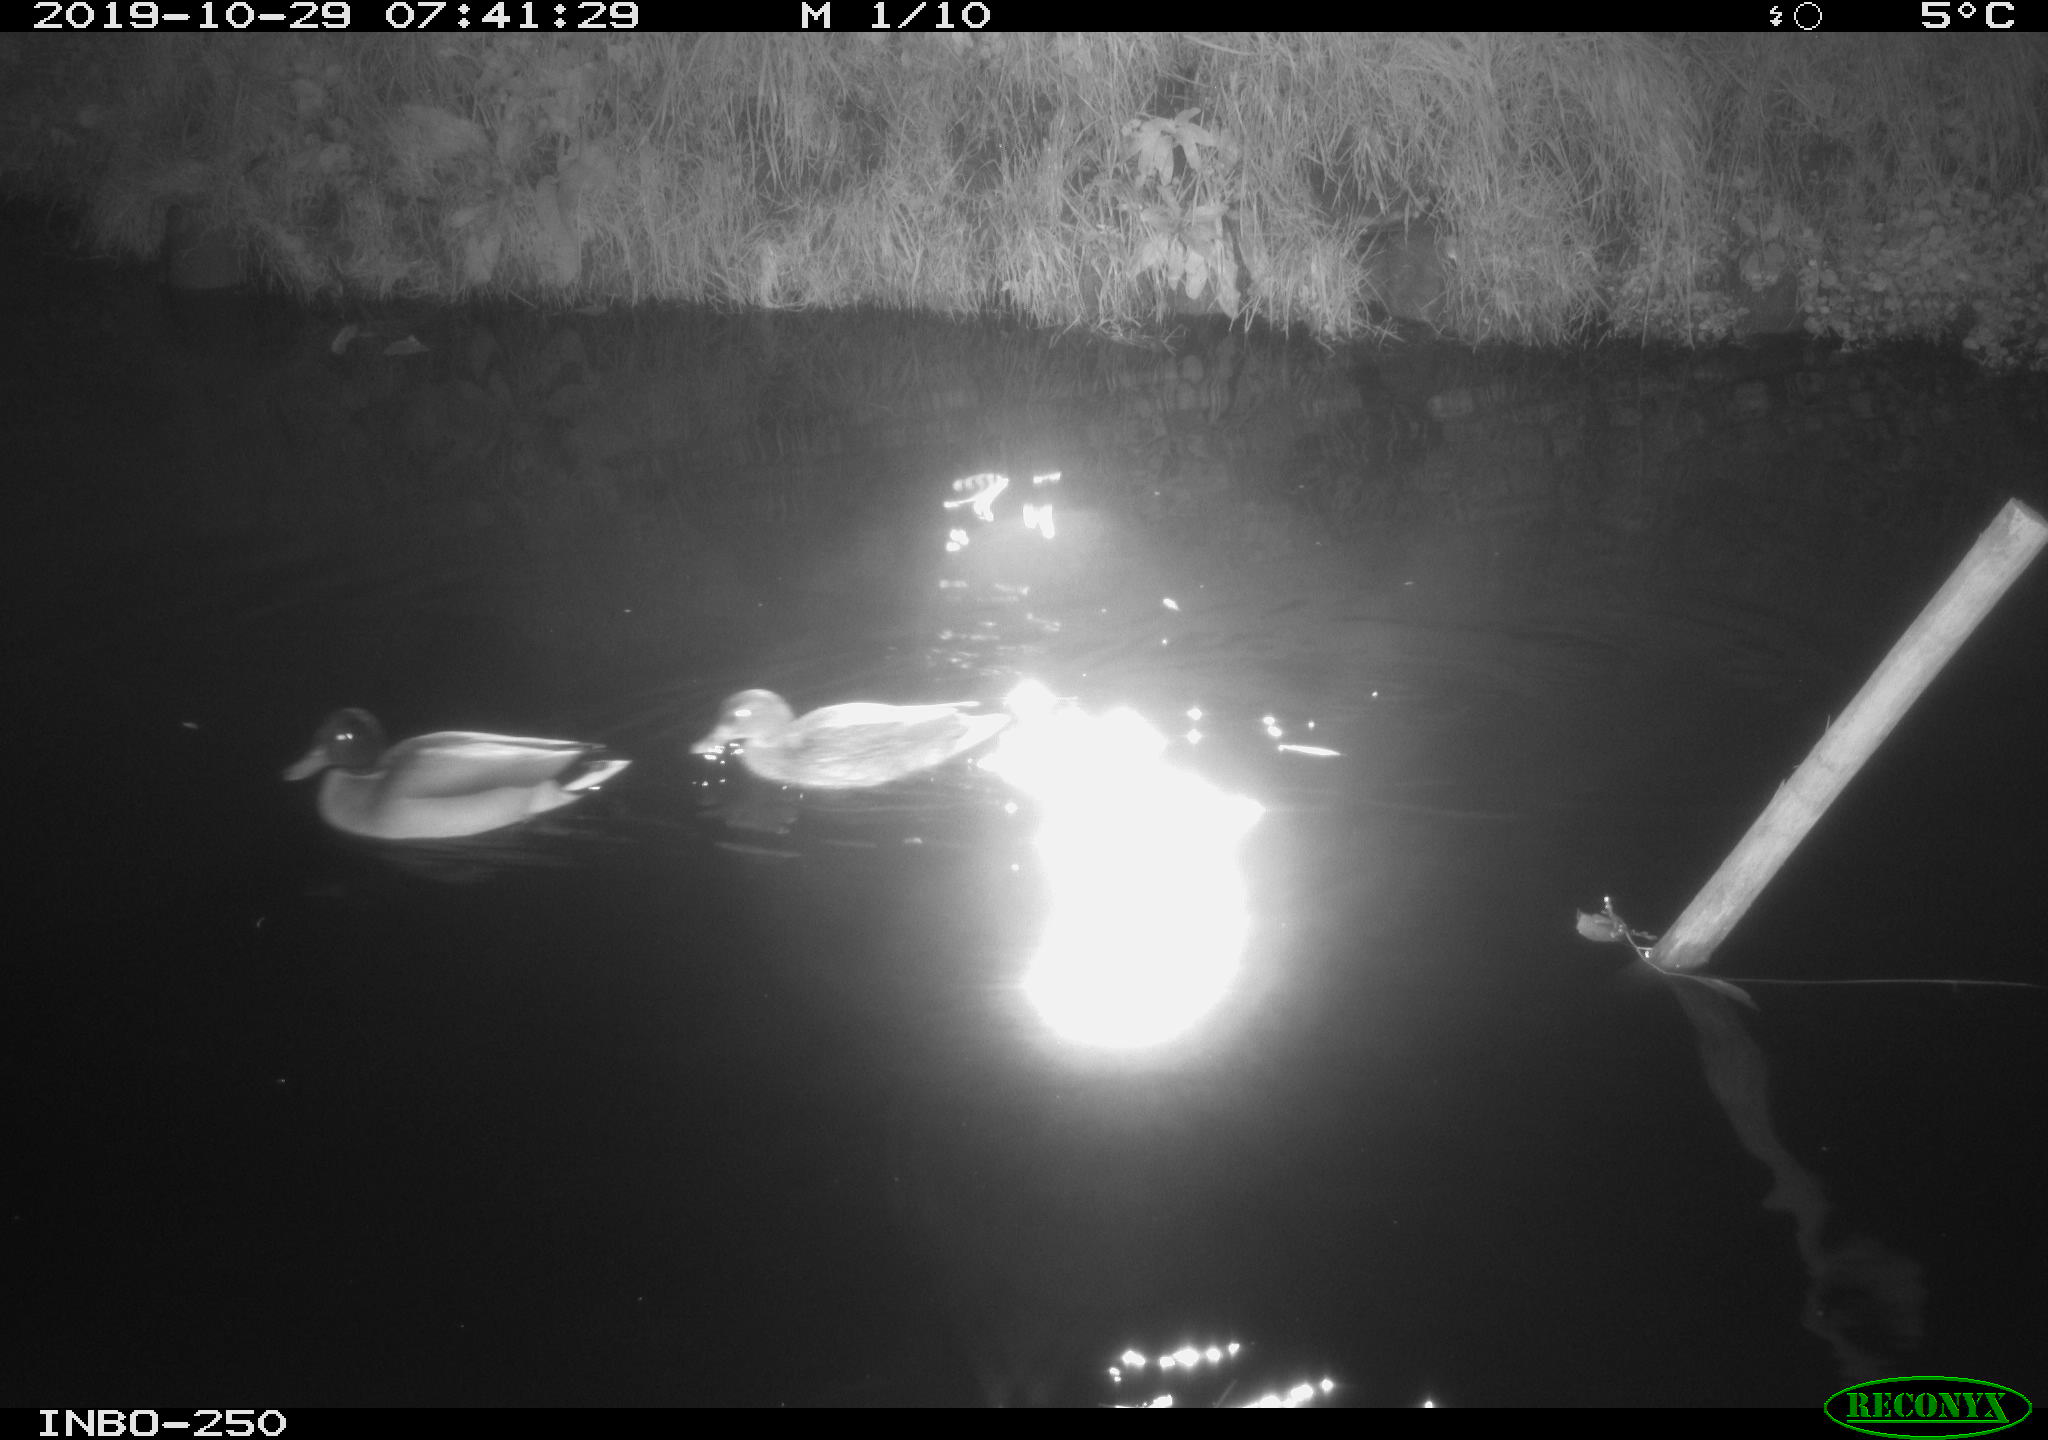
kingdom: Animalia
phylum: Chordata
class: Aves
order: Anseriformes
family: Anatidae
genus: Anas
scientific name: Anas platyrhynchos
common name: Mallard
